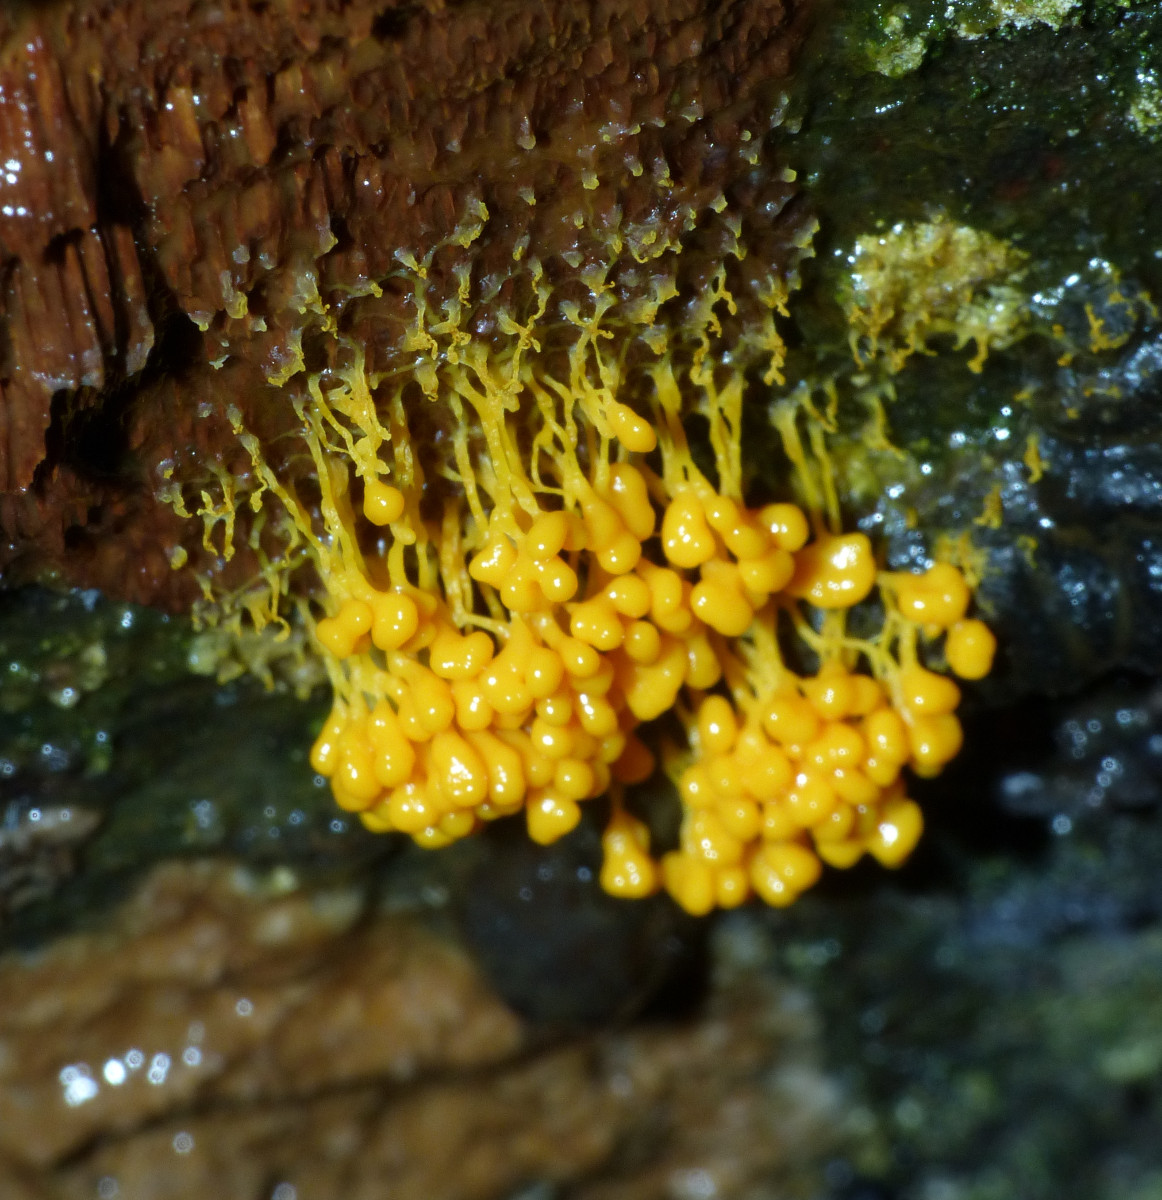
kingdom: Protozoa
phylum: Mycetozoa
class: Myxomycetes
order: Physarales
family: Physaraceae
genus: Badhamia
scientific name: Badhamia utricularis
